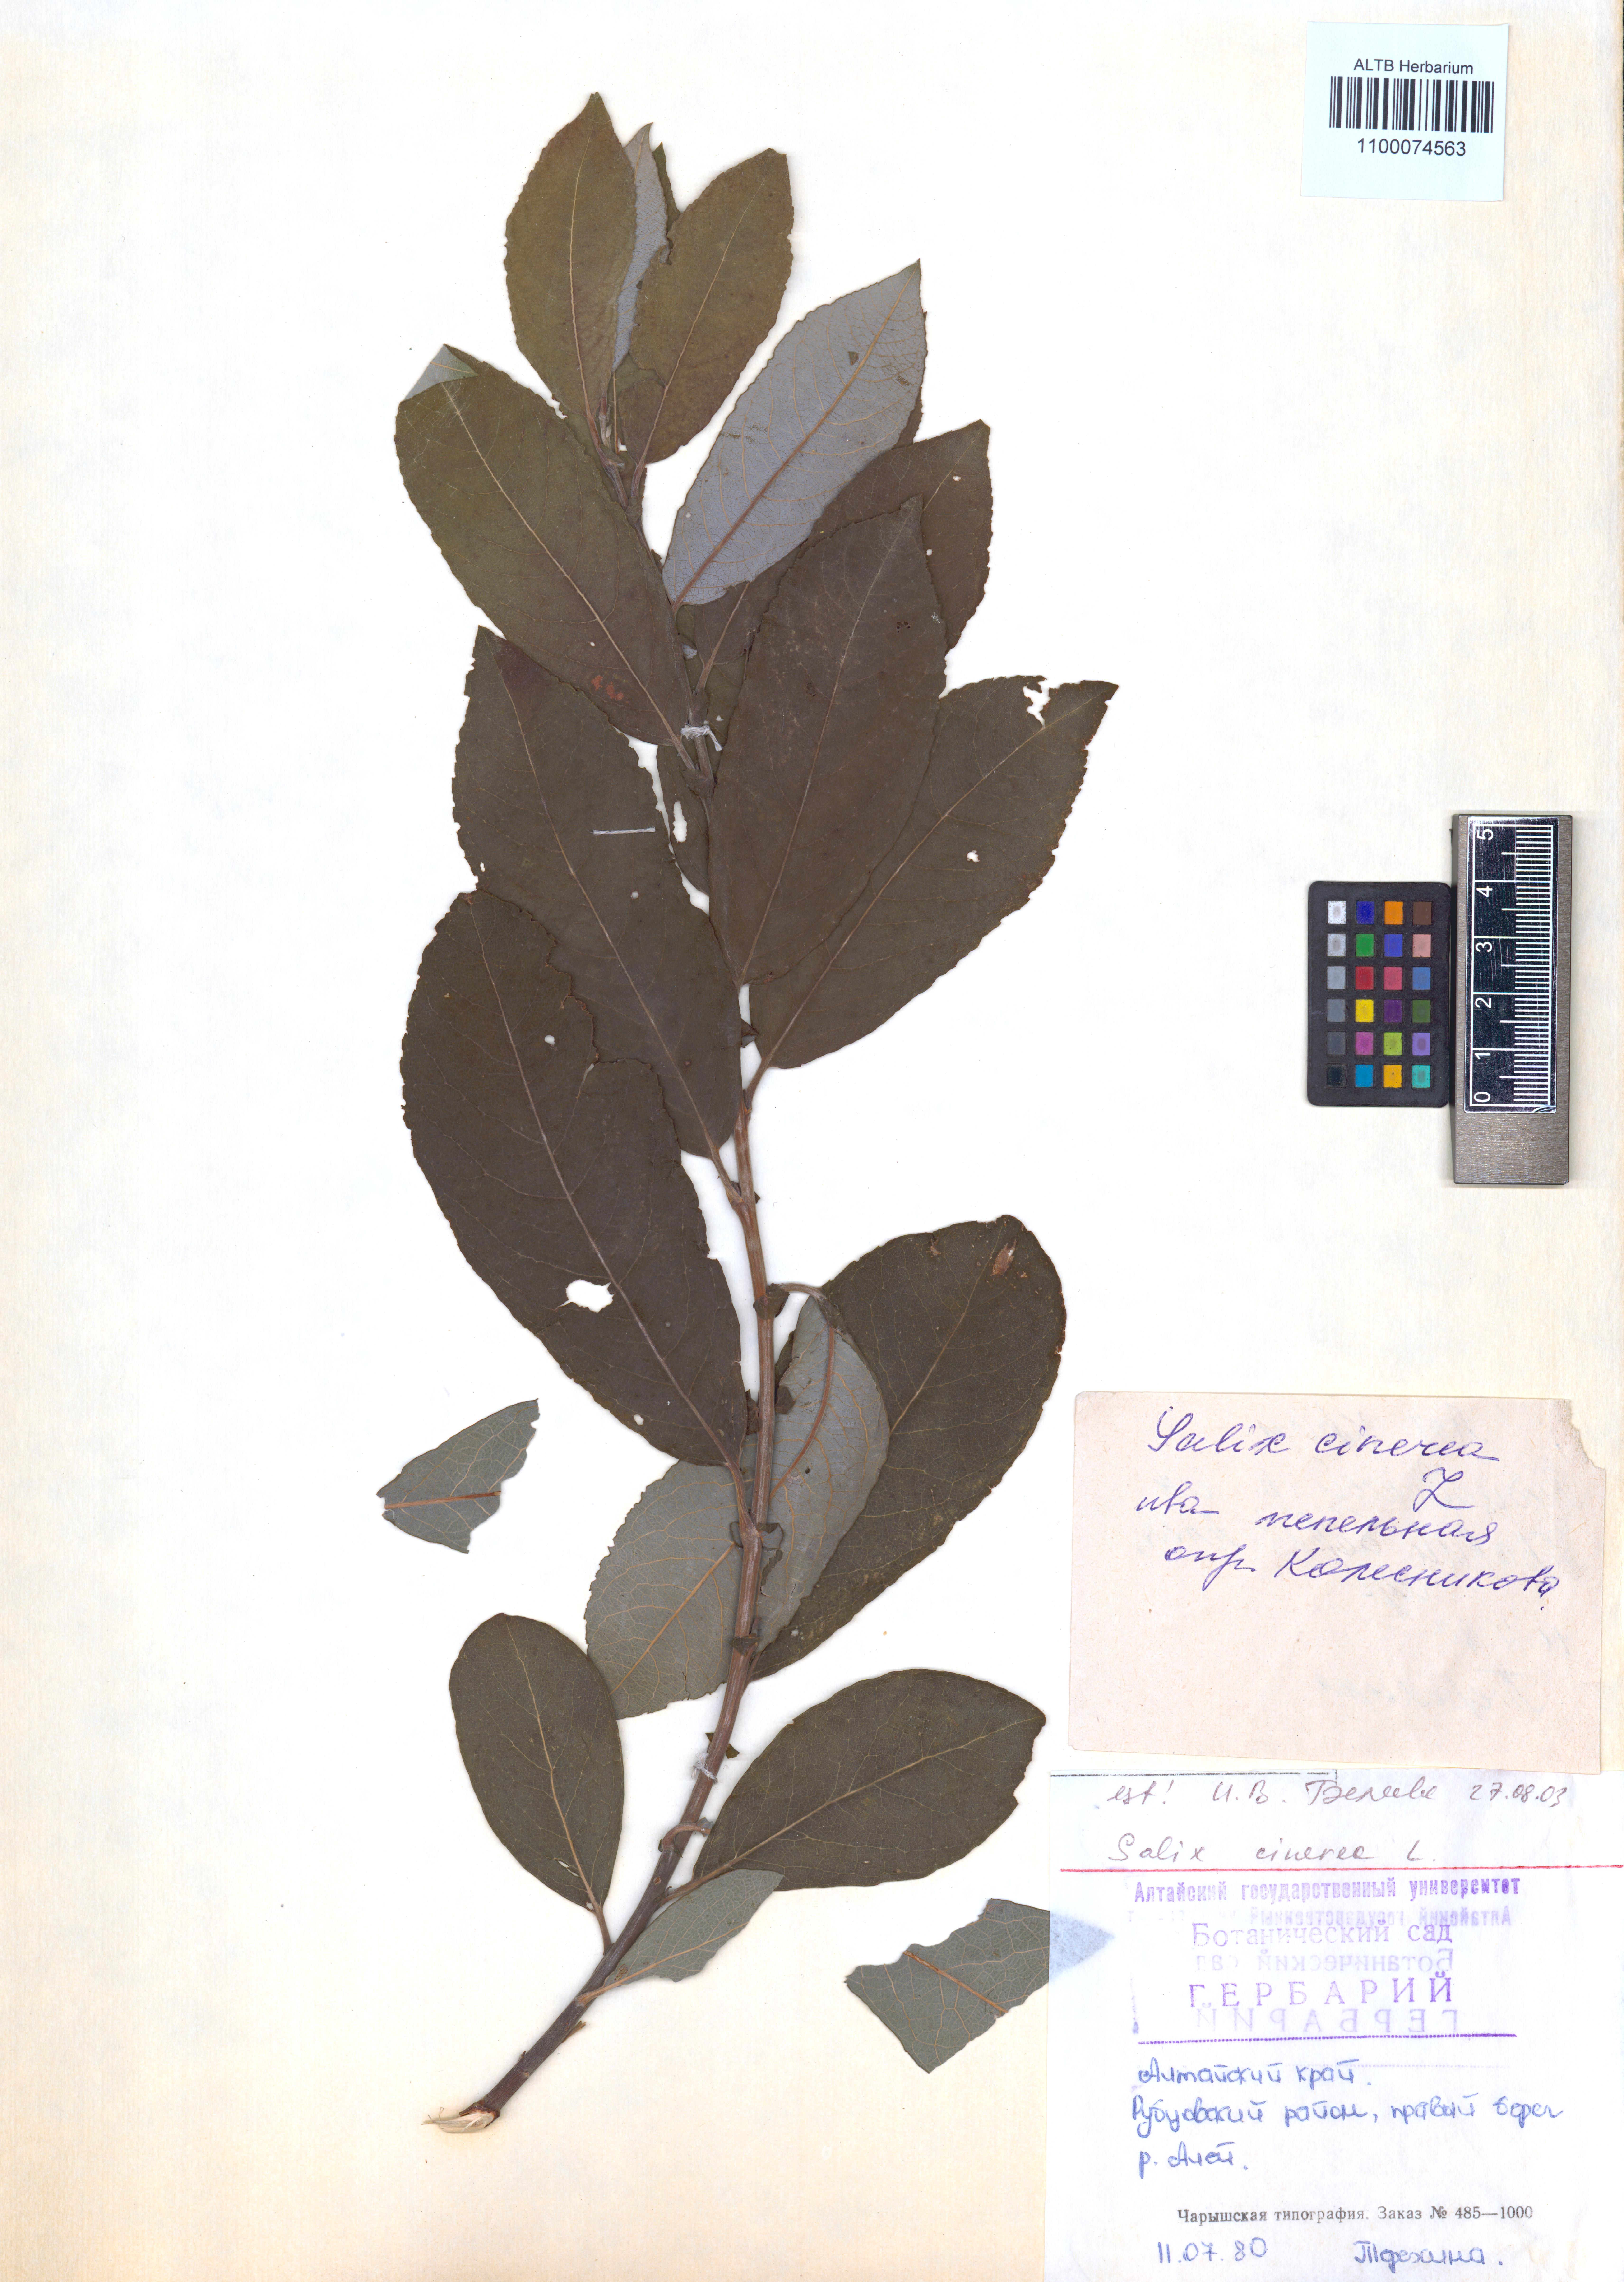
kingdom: Plantae
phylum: Tracheophyta
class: Magnoliopsida
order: Malpighiales
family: Salicaceae
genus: Salix
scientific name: Salix cinerea
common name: Common sallow
